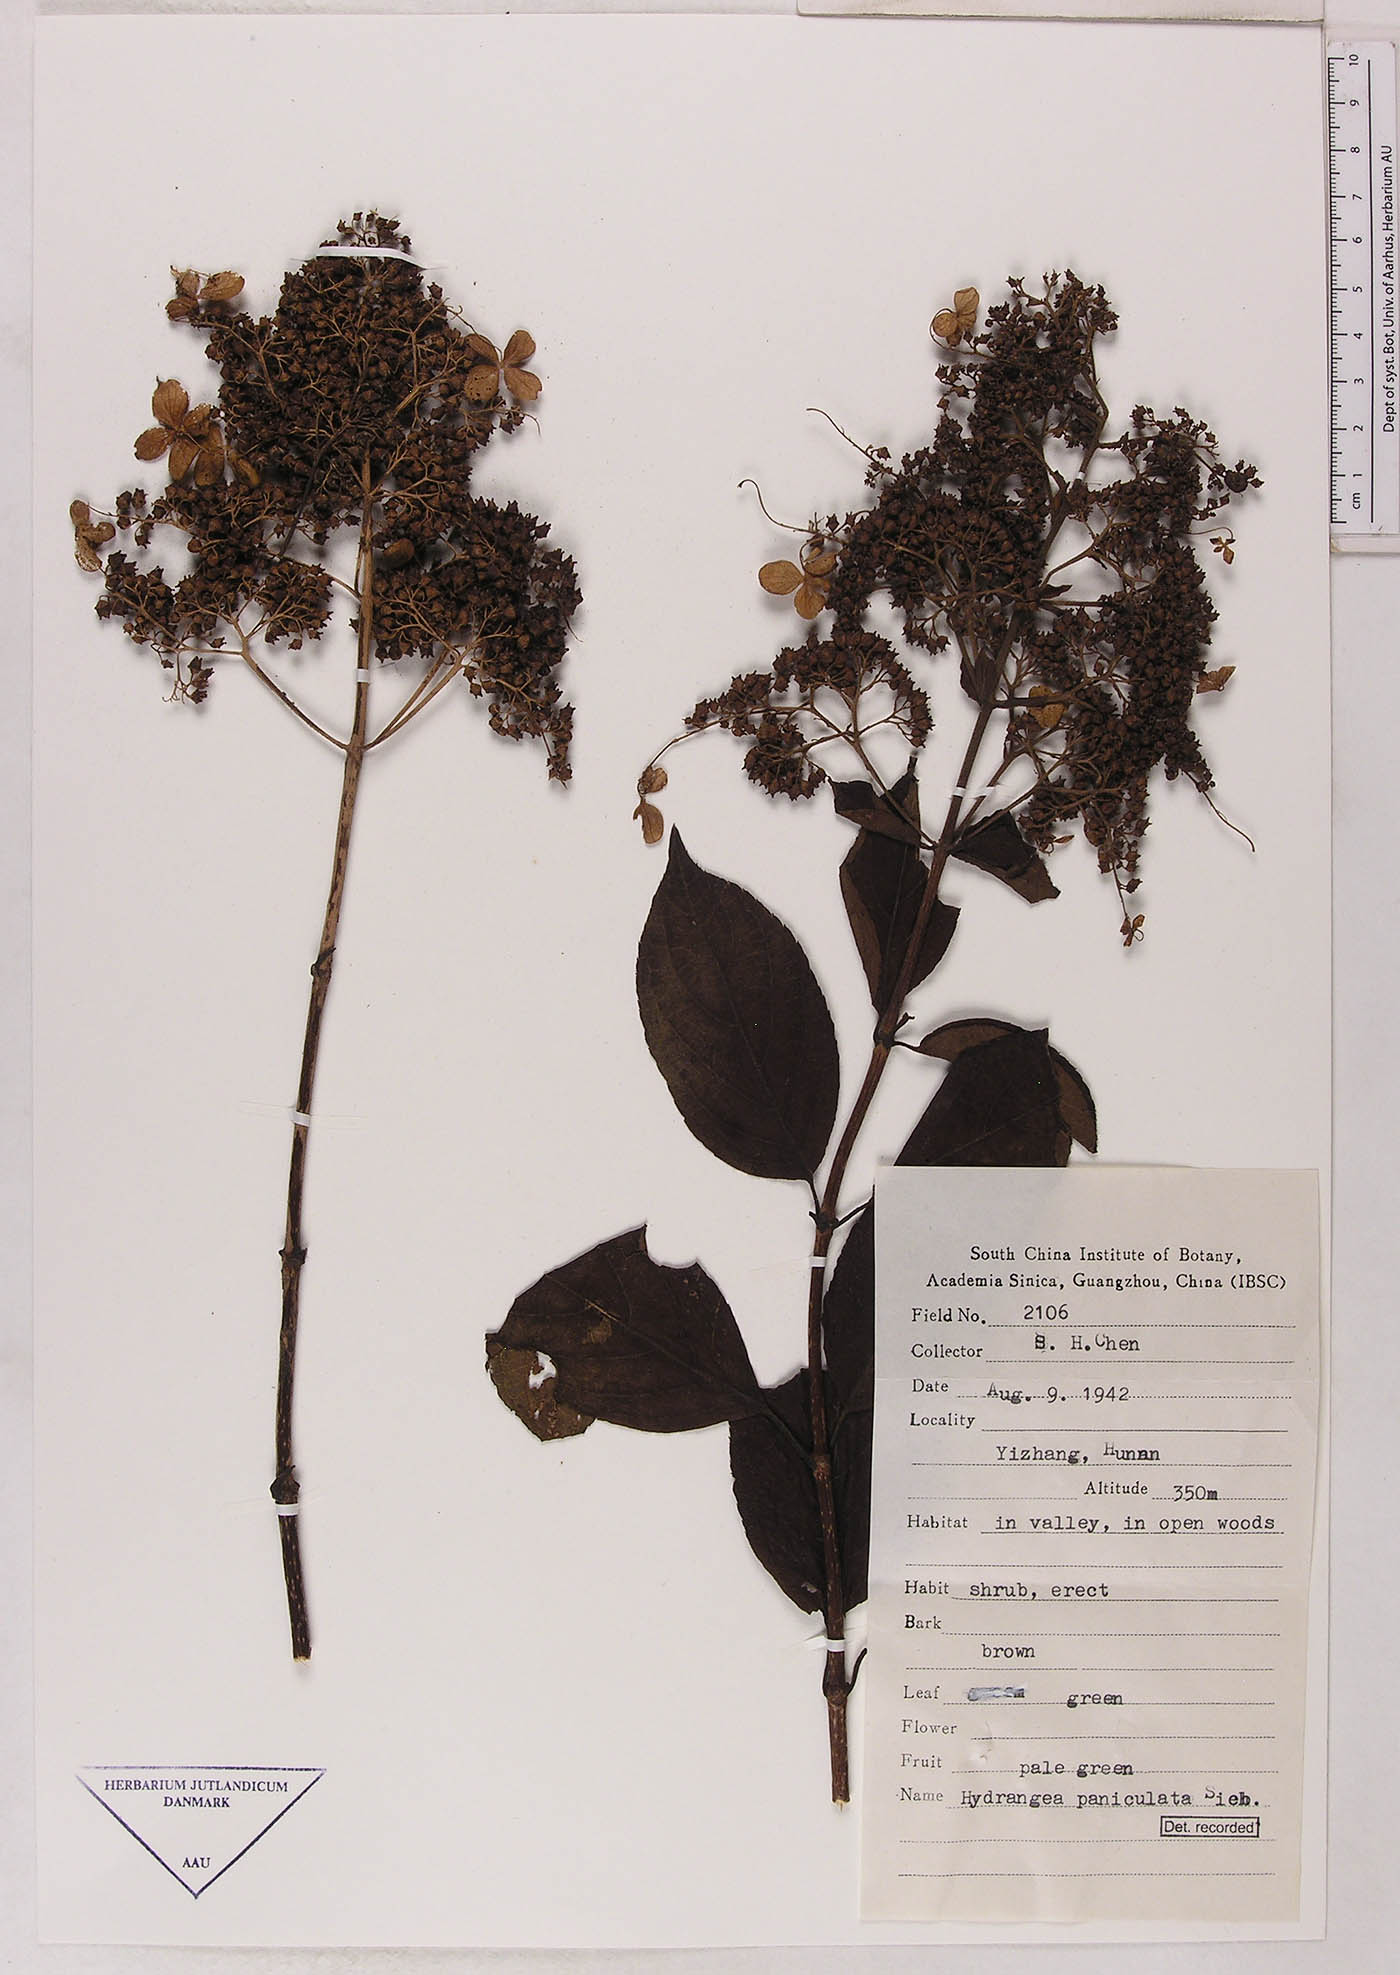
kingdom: Plantae
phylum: Tracheophyta
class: Magnoliopsida
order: Cornales
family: Hydrangeaceae
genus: Hydrangea
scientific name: Hydrangea paniculata
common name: Panicled hydrangea
